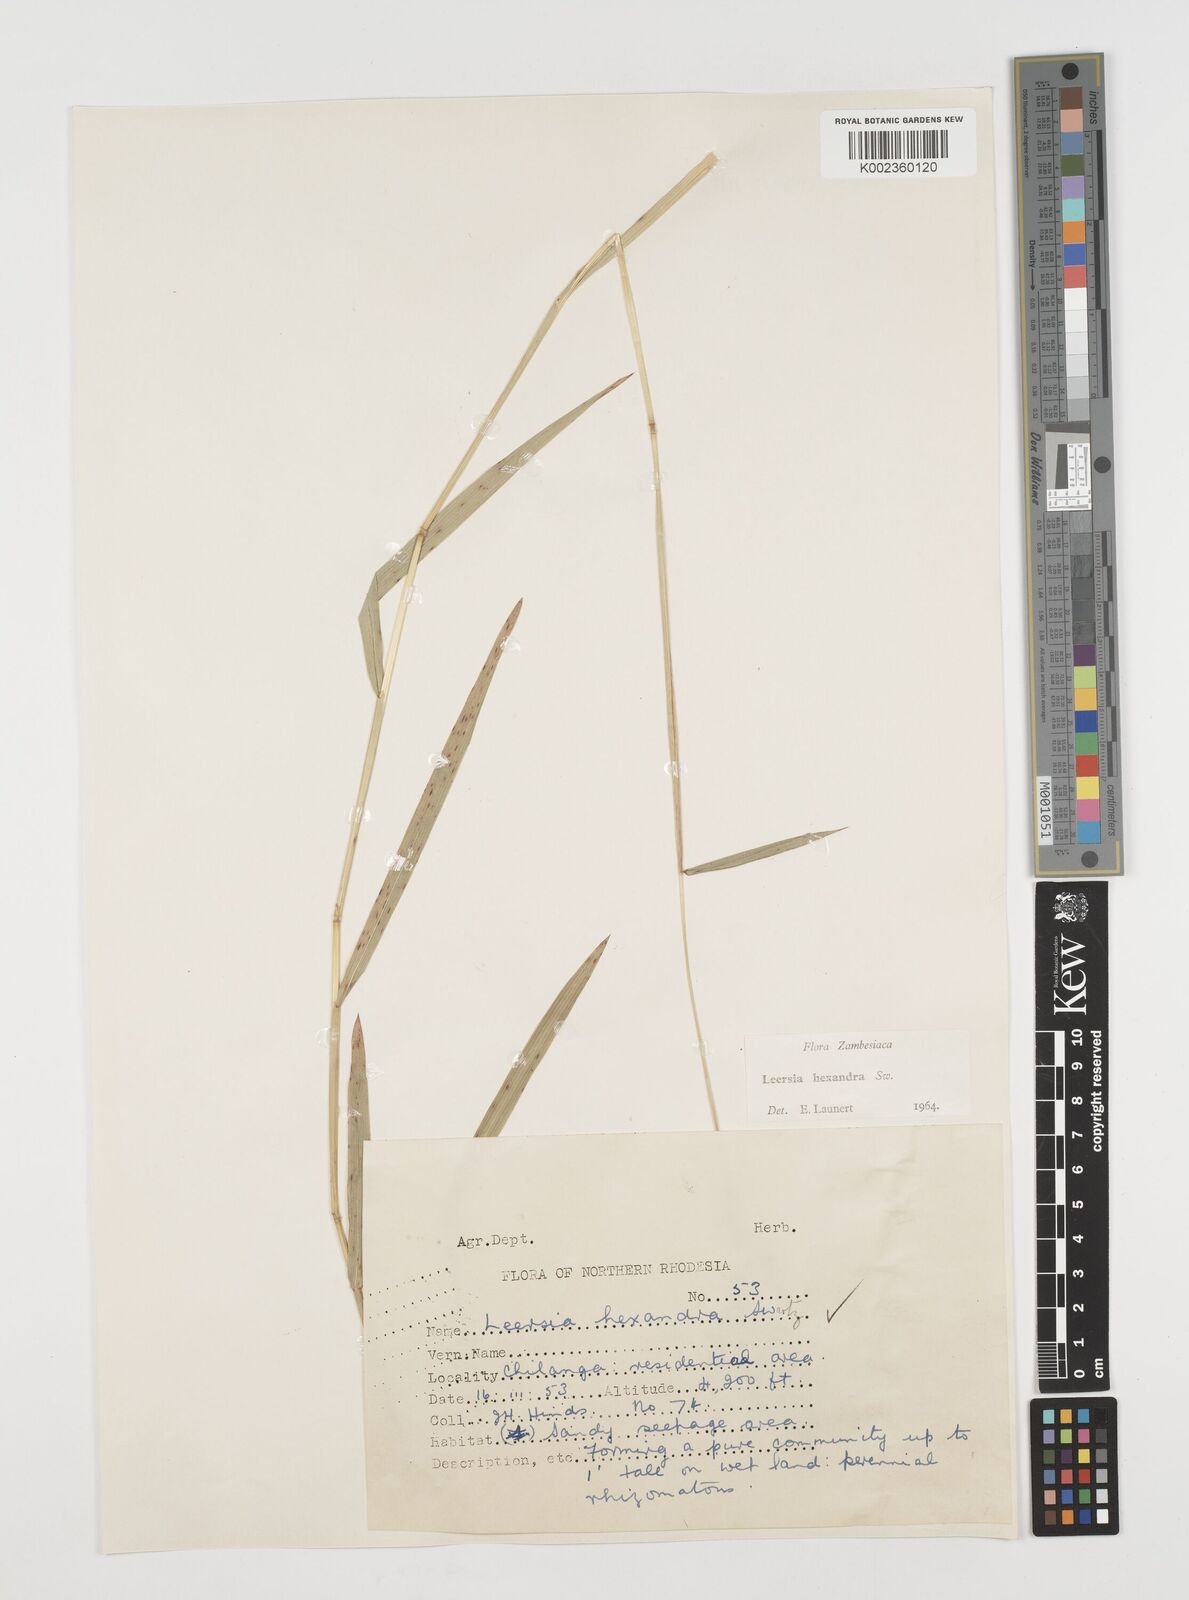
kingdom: Plantae
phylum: Tracheophyta
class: Liliopsida
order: Poales
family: Poaceae
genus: Leersia
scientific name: Leersia hexandra
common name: Southern cut grass
